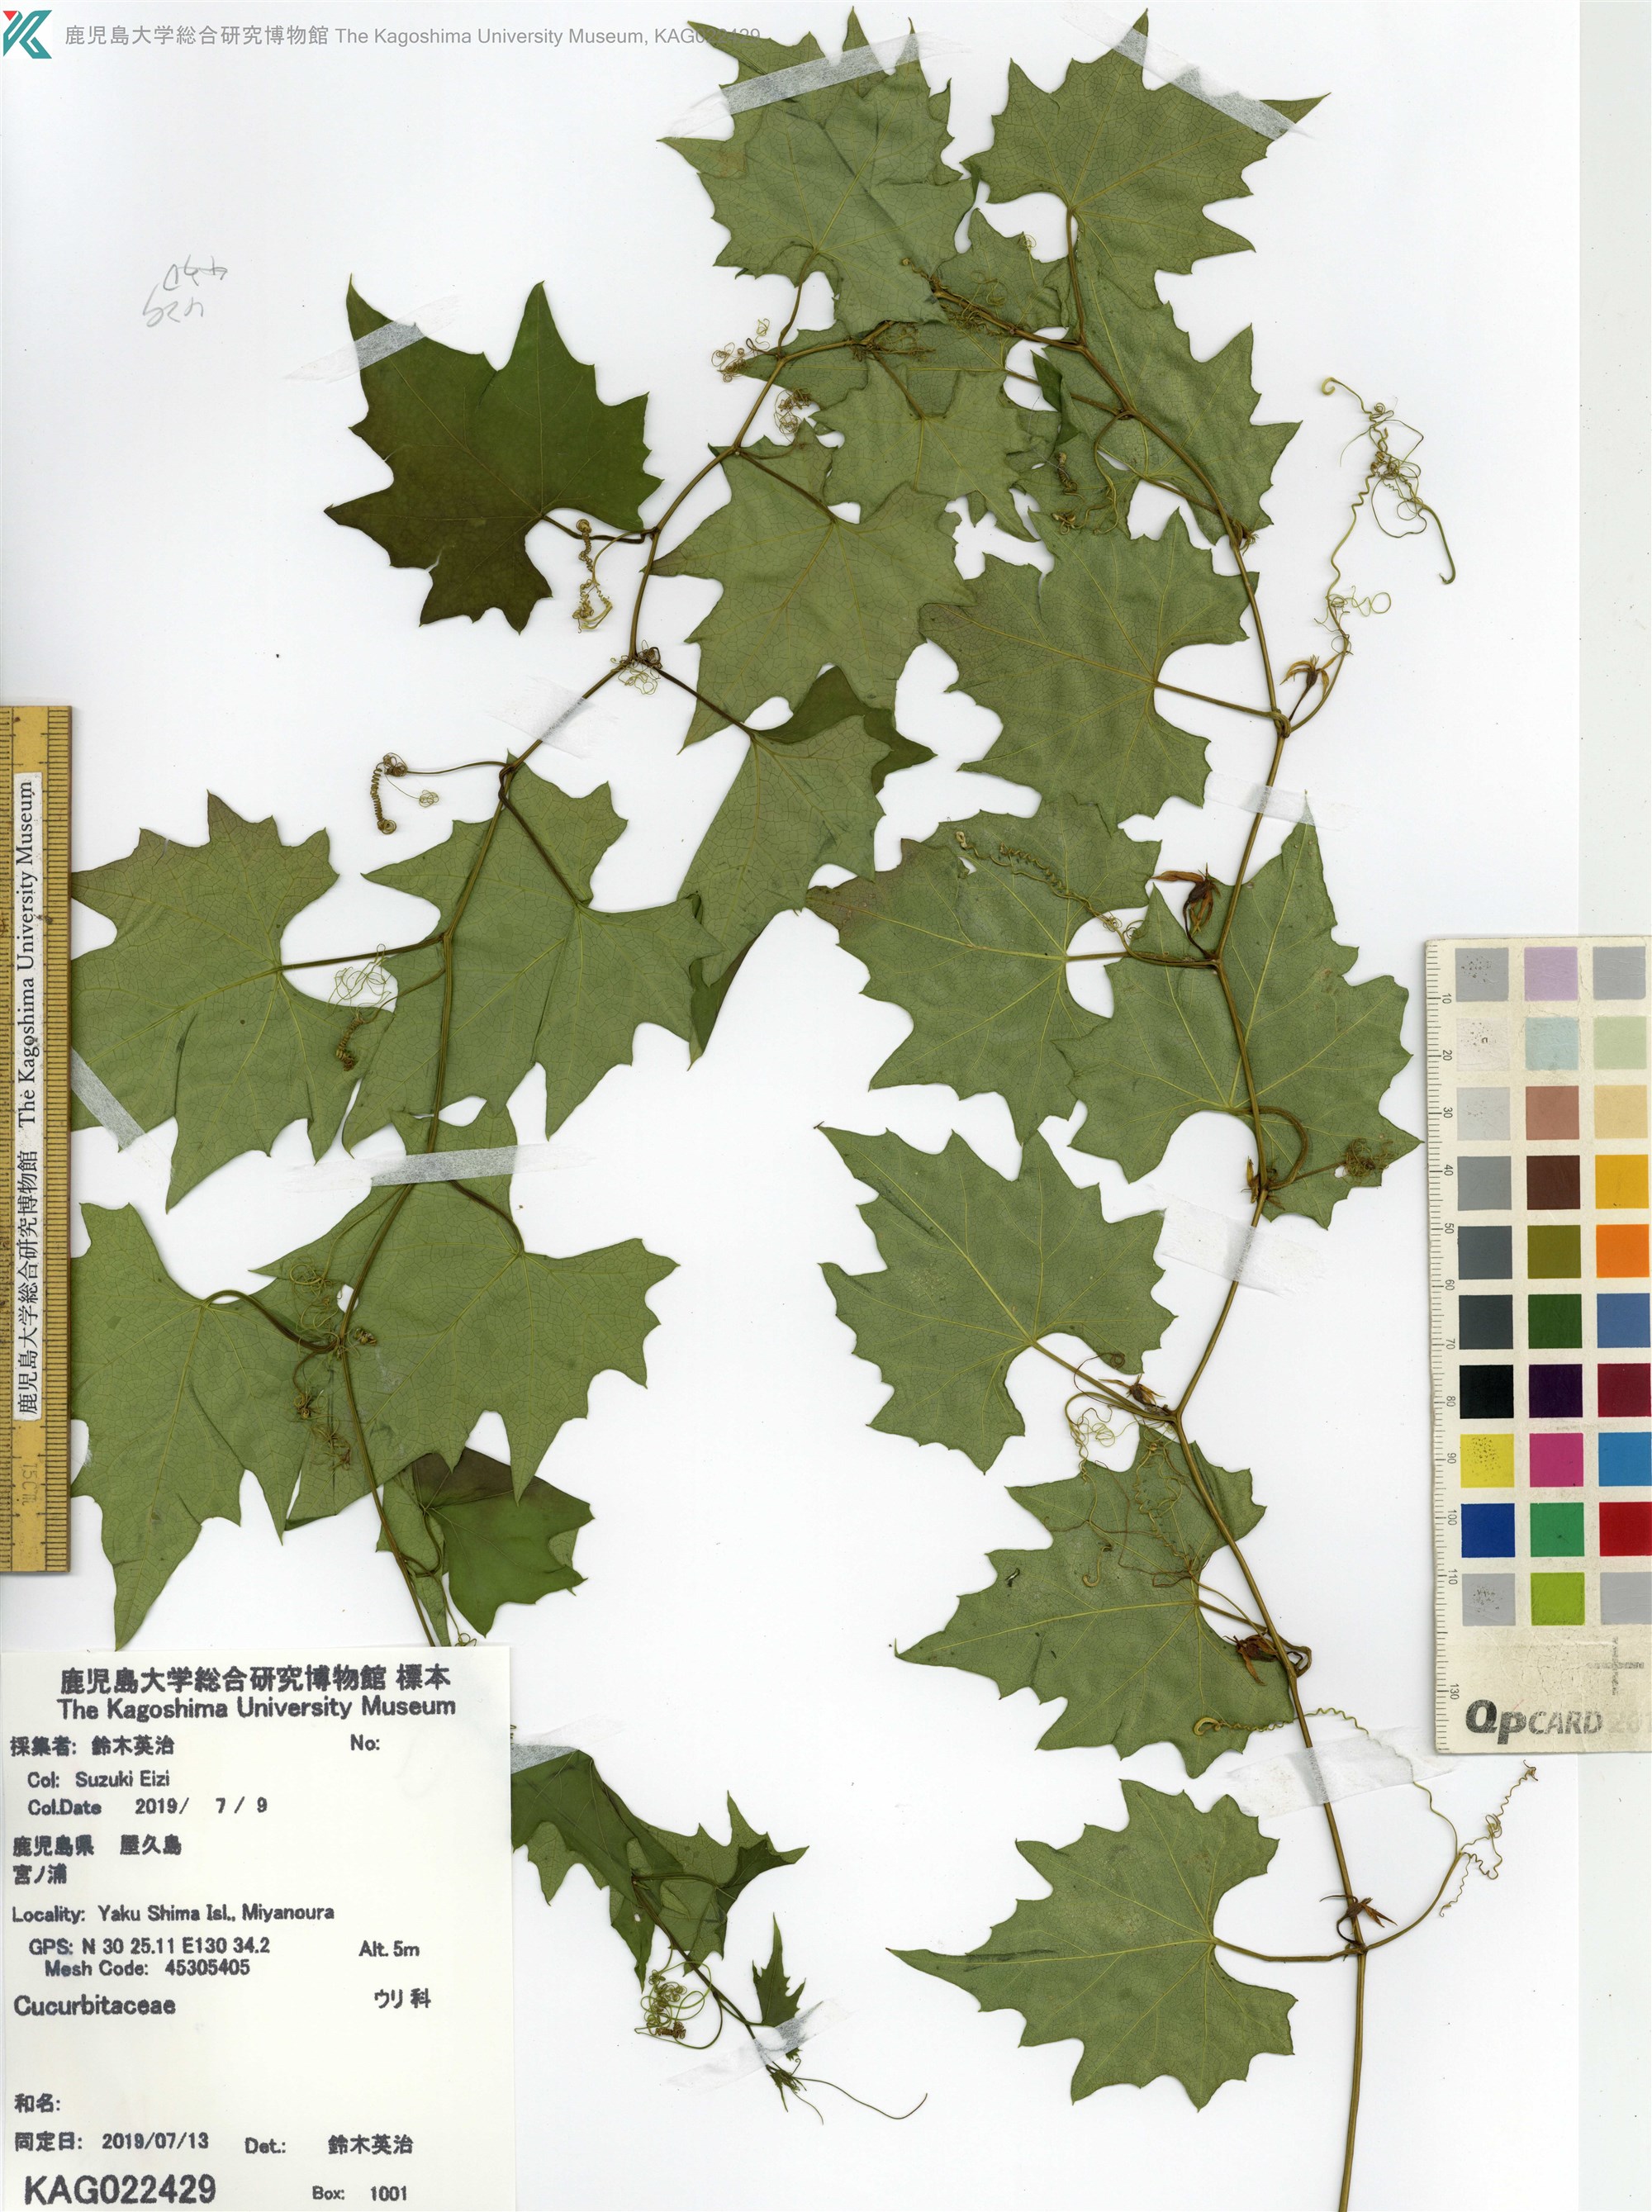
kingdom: Plantae
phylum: Tracheophyta
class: Magnoliopsida
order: Cucurbitales
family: Cucurbitaceae
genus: Trichosanthes
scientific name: Trichosanthes
